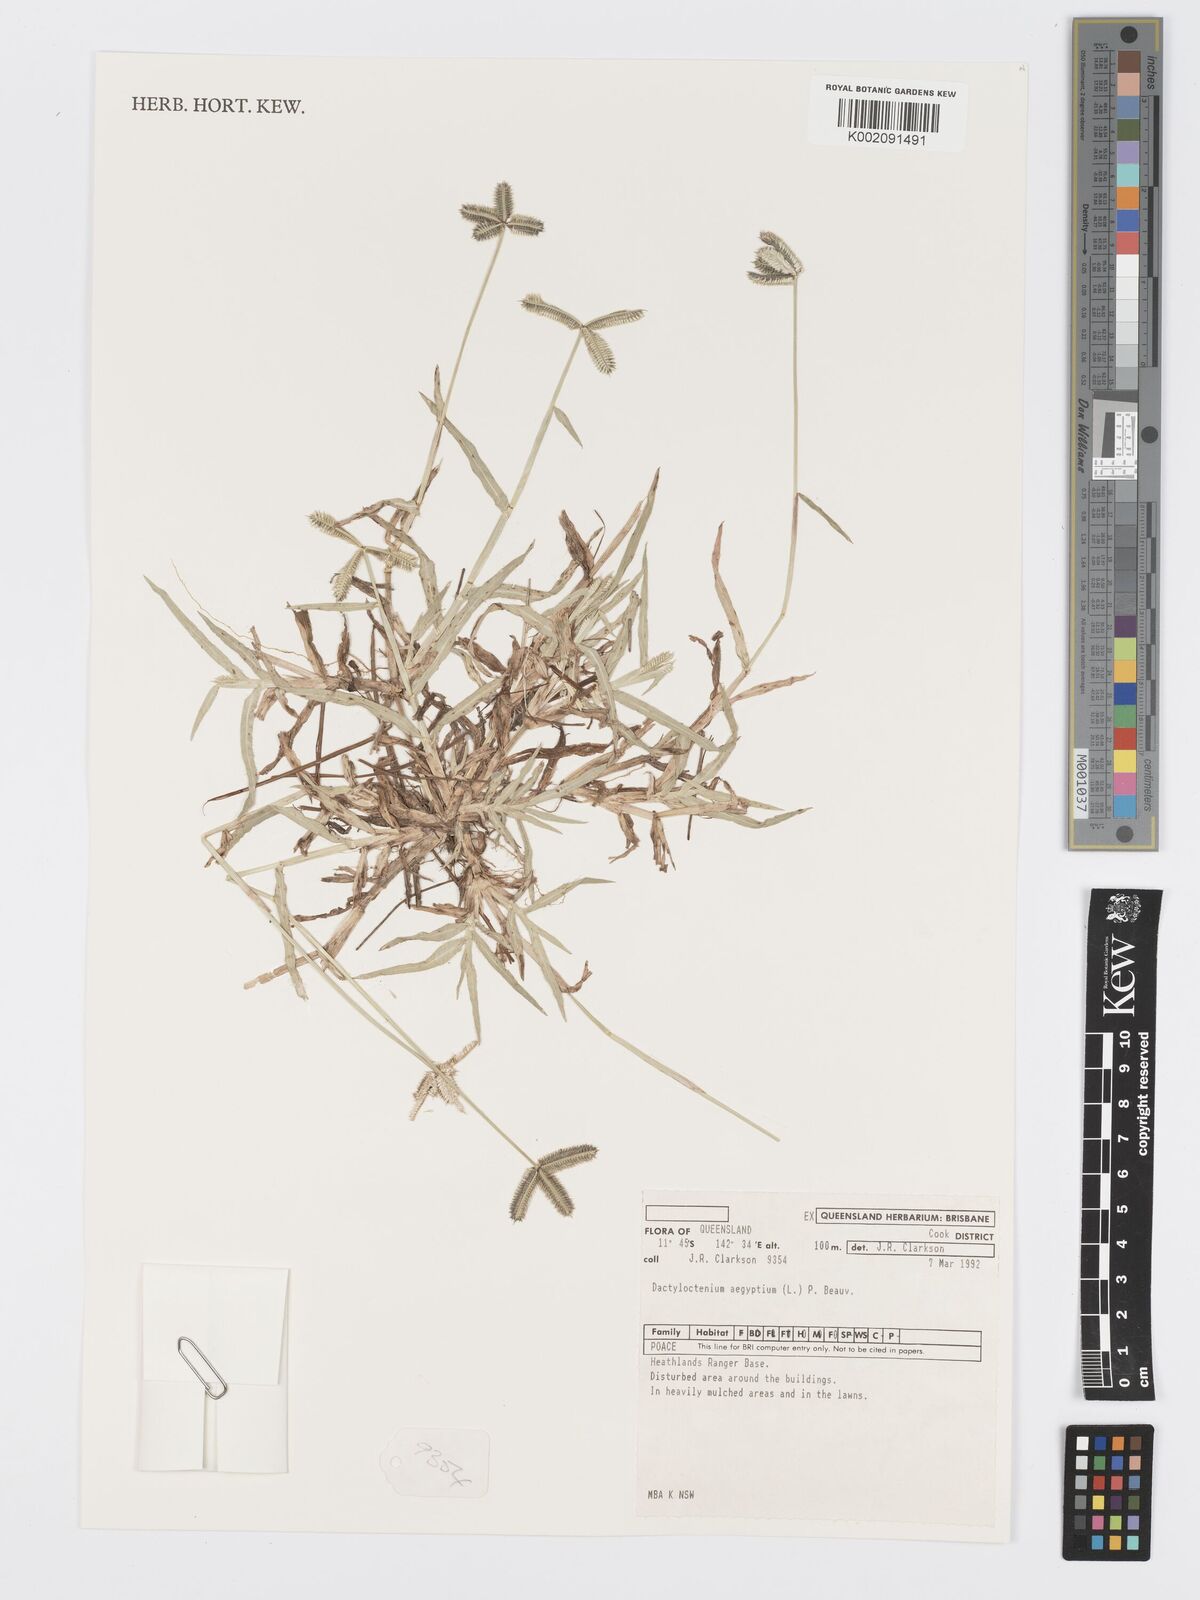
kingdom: Plantae
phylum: Tracheophyta
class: Liliopsida
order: Poales
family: Poaceae
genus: Dactyloctenium
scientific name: Dactyloctenium aegyptium
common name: Egyptian grass
